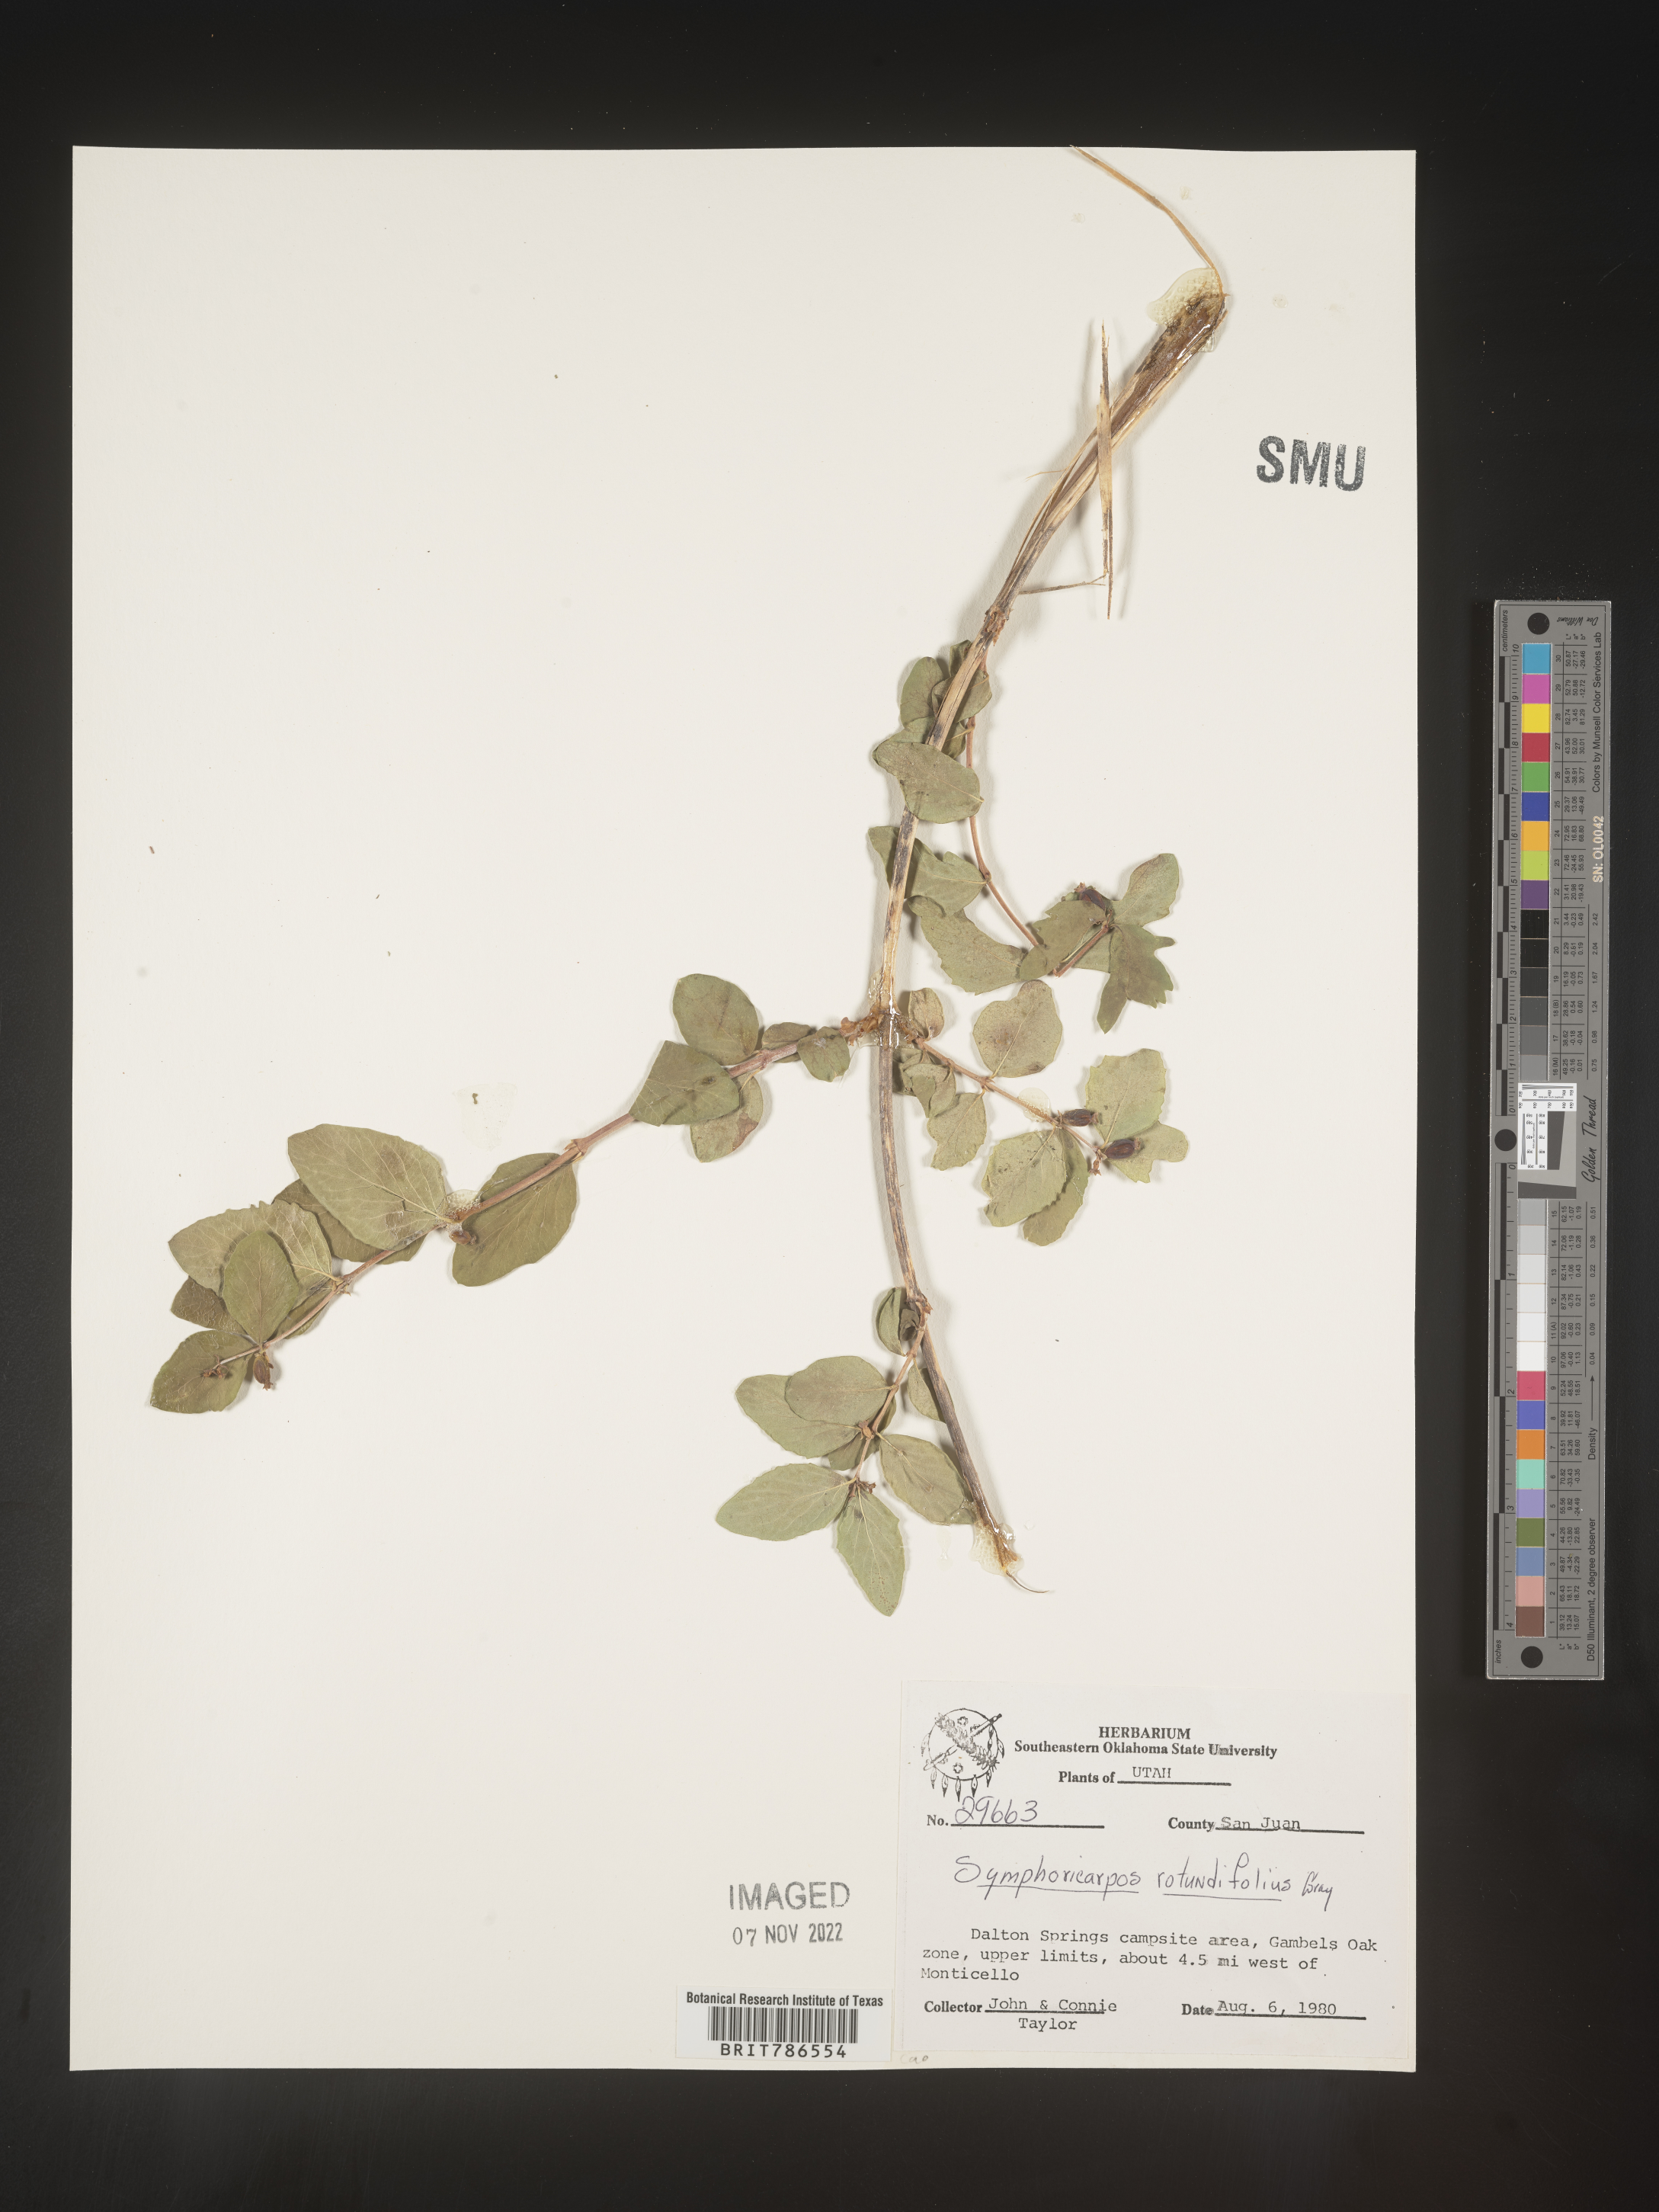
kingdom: Plantae
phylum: Tracheophyta
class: Magnoliopsida
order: Dipsacales
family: Caprifoliaceae
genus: Symphoricarpos
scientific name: Symphoricarpos
